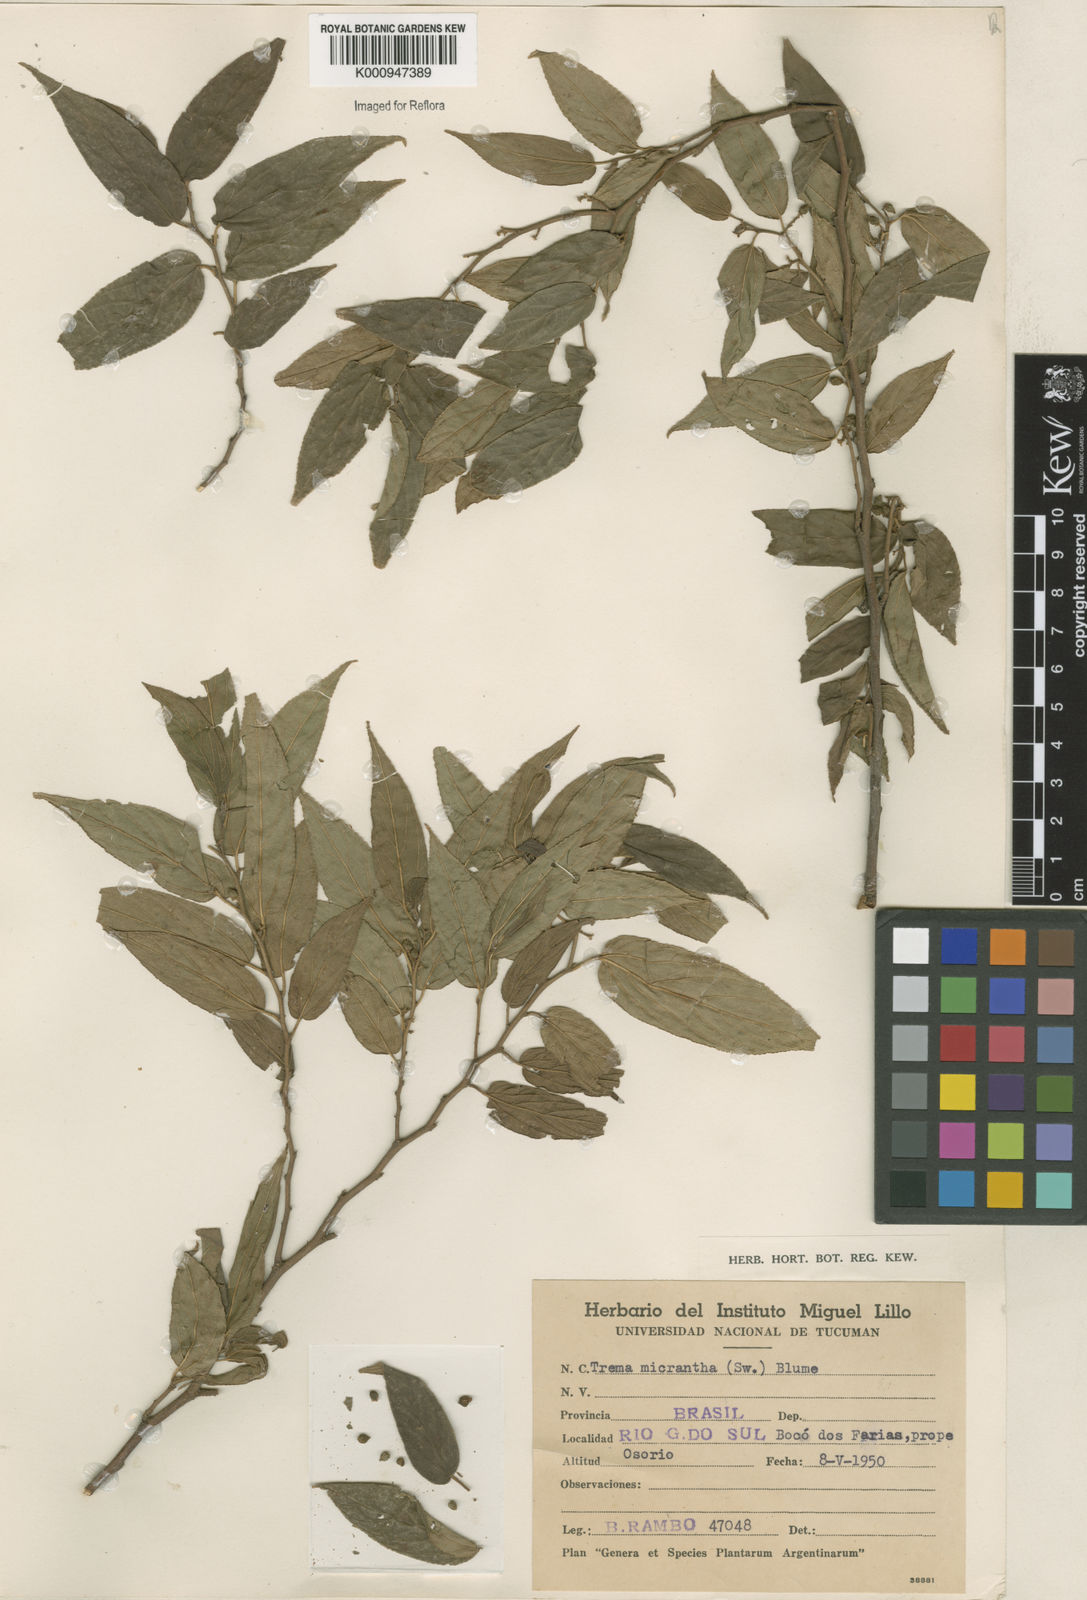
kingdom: Plantae
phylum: Tracheophyta
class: Magnoliopsida
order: Rosales
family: Cannabaceae
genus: Trema
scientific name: Trema micranthum
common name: Jamaican nettletree
